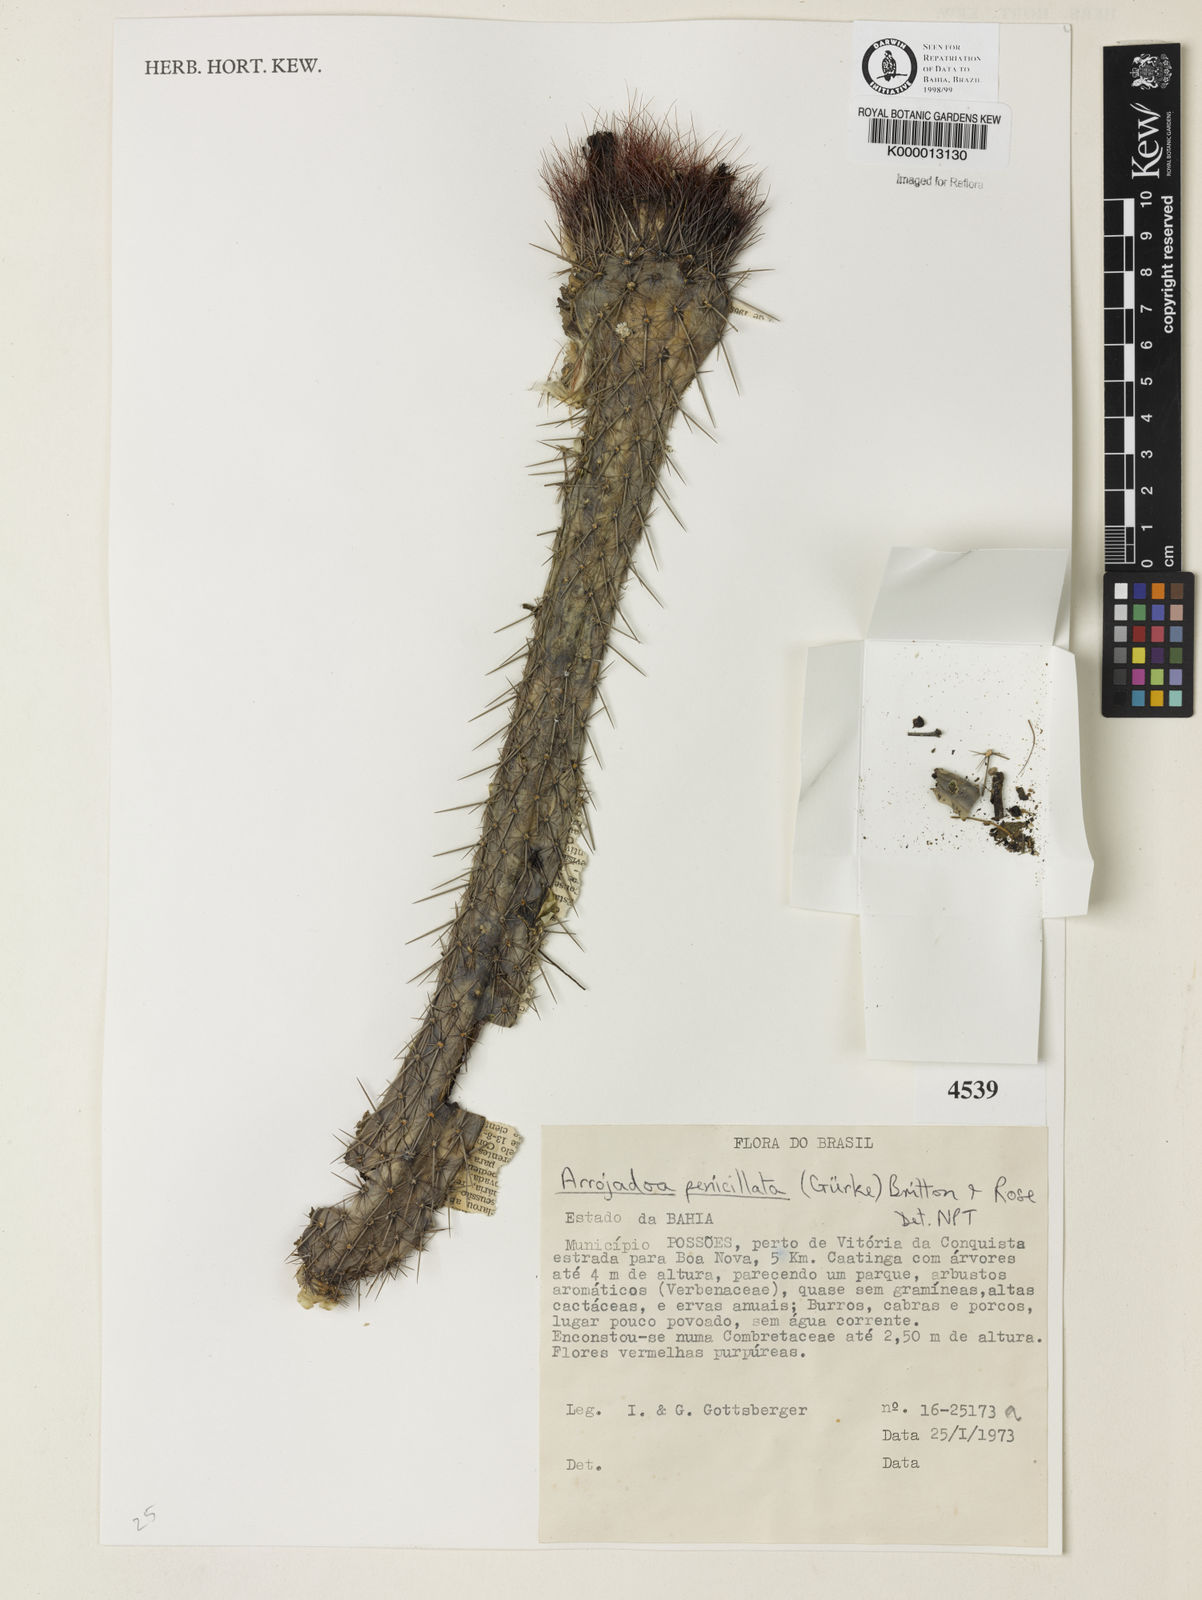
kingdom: Plantae
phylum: Tracheophyta
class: Magnoliopsida
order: Caryophyllales
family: Cactaceae
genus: Arrojadoa
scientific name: Arrojadoa penicillata
